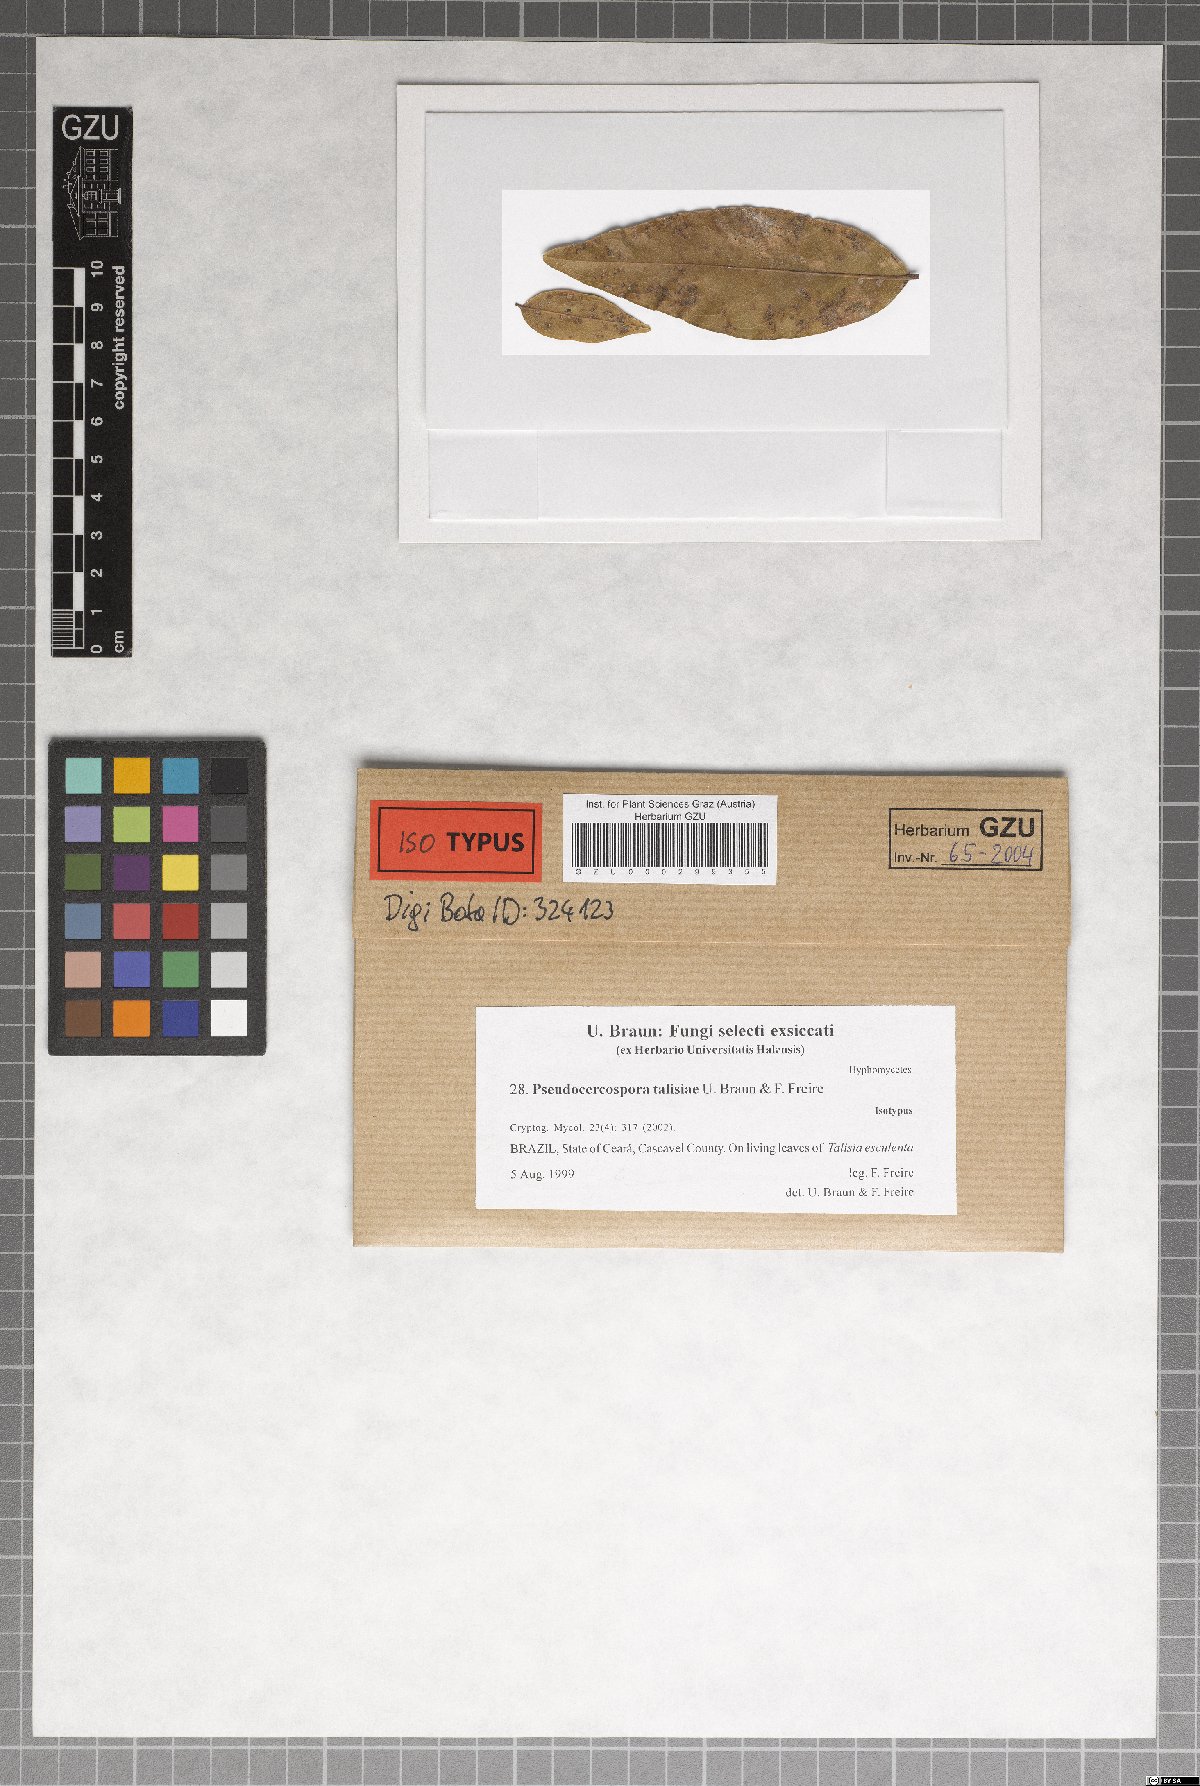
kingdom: Fungi
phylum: Ascomycota
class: Dothideomycetes
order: Mycosphaerellales
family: Mycosphaerellaceae
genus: Pseudocercospora
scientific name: Pseudocercospora talisiae
